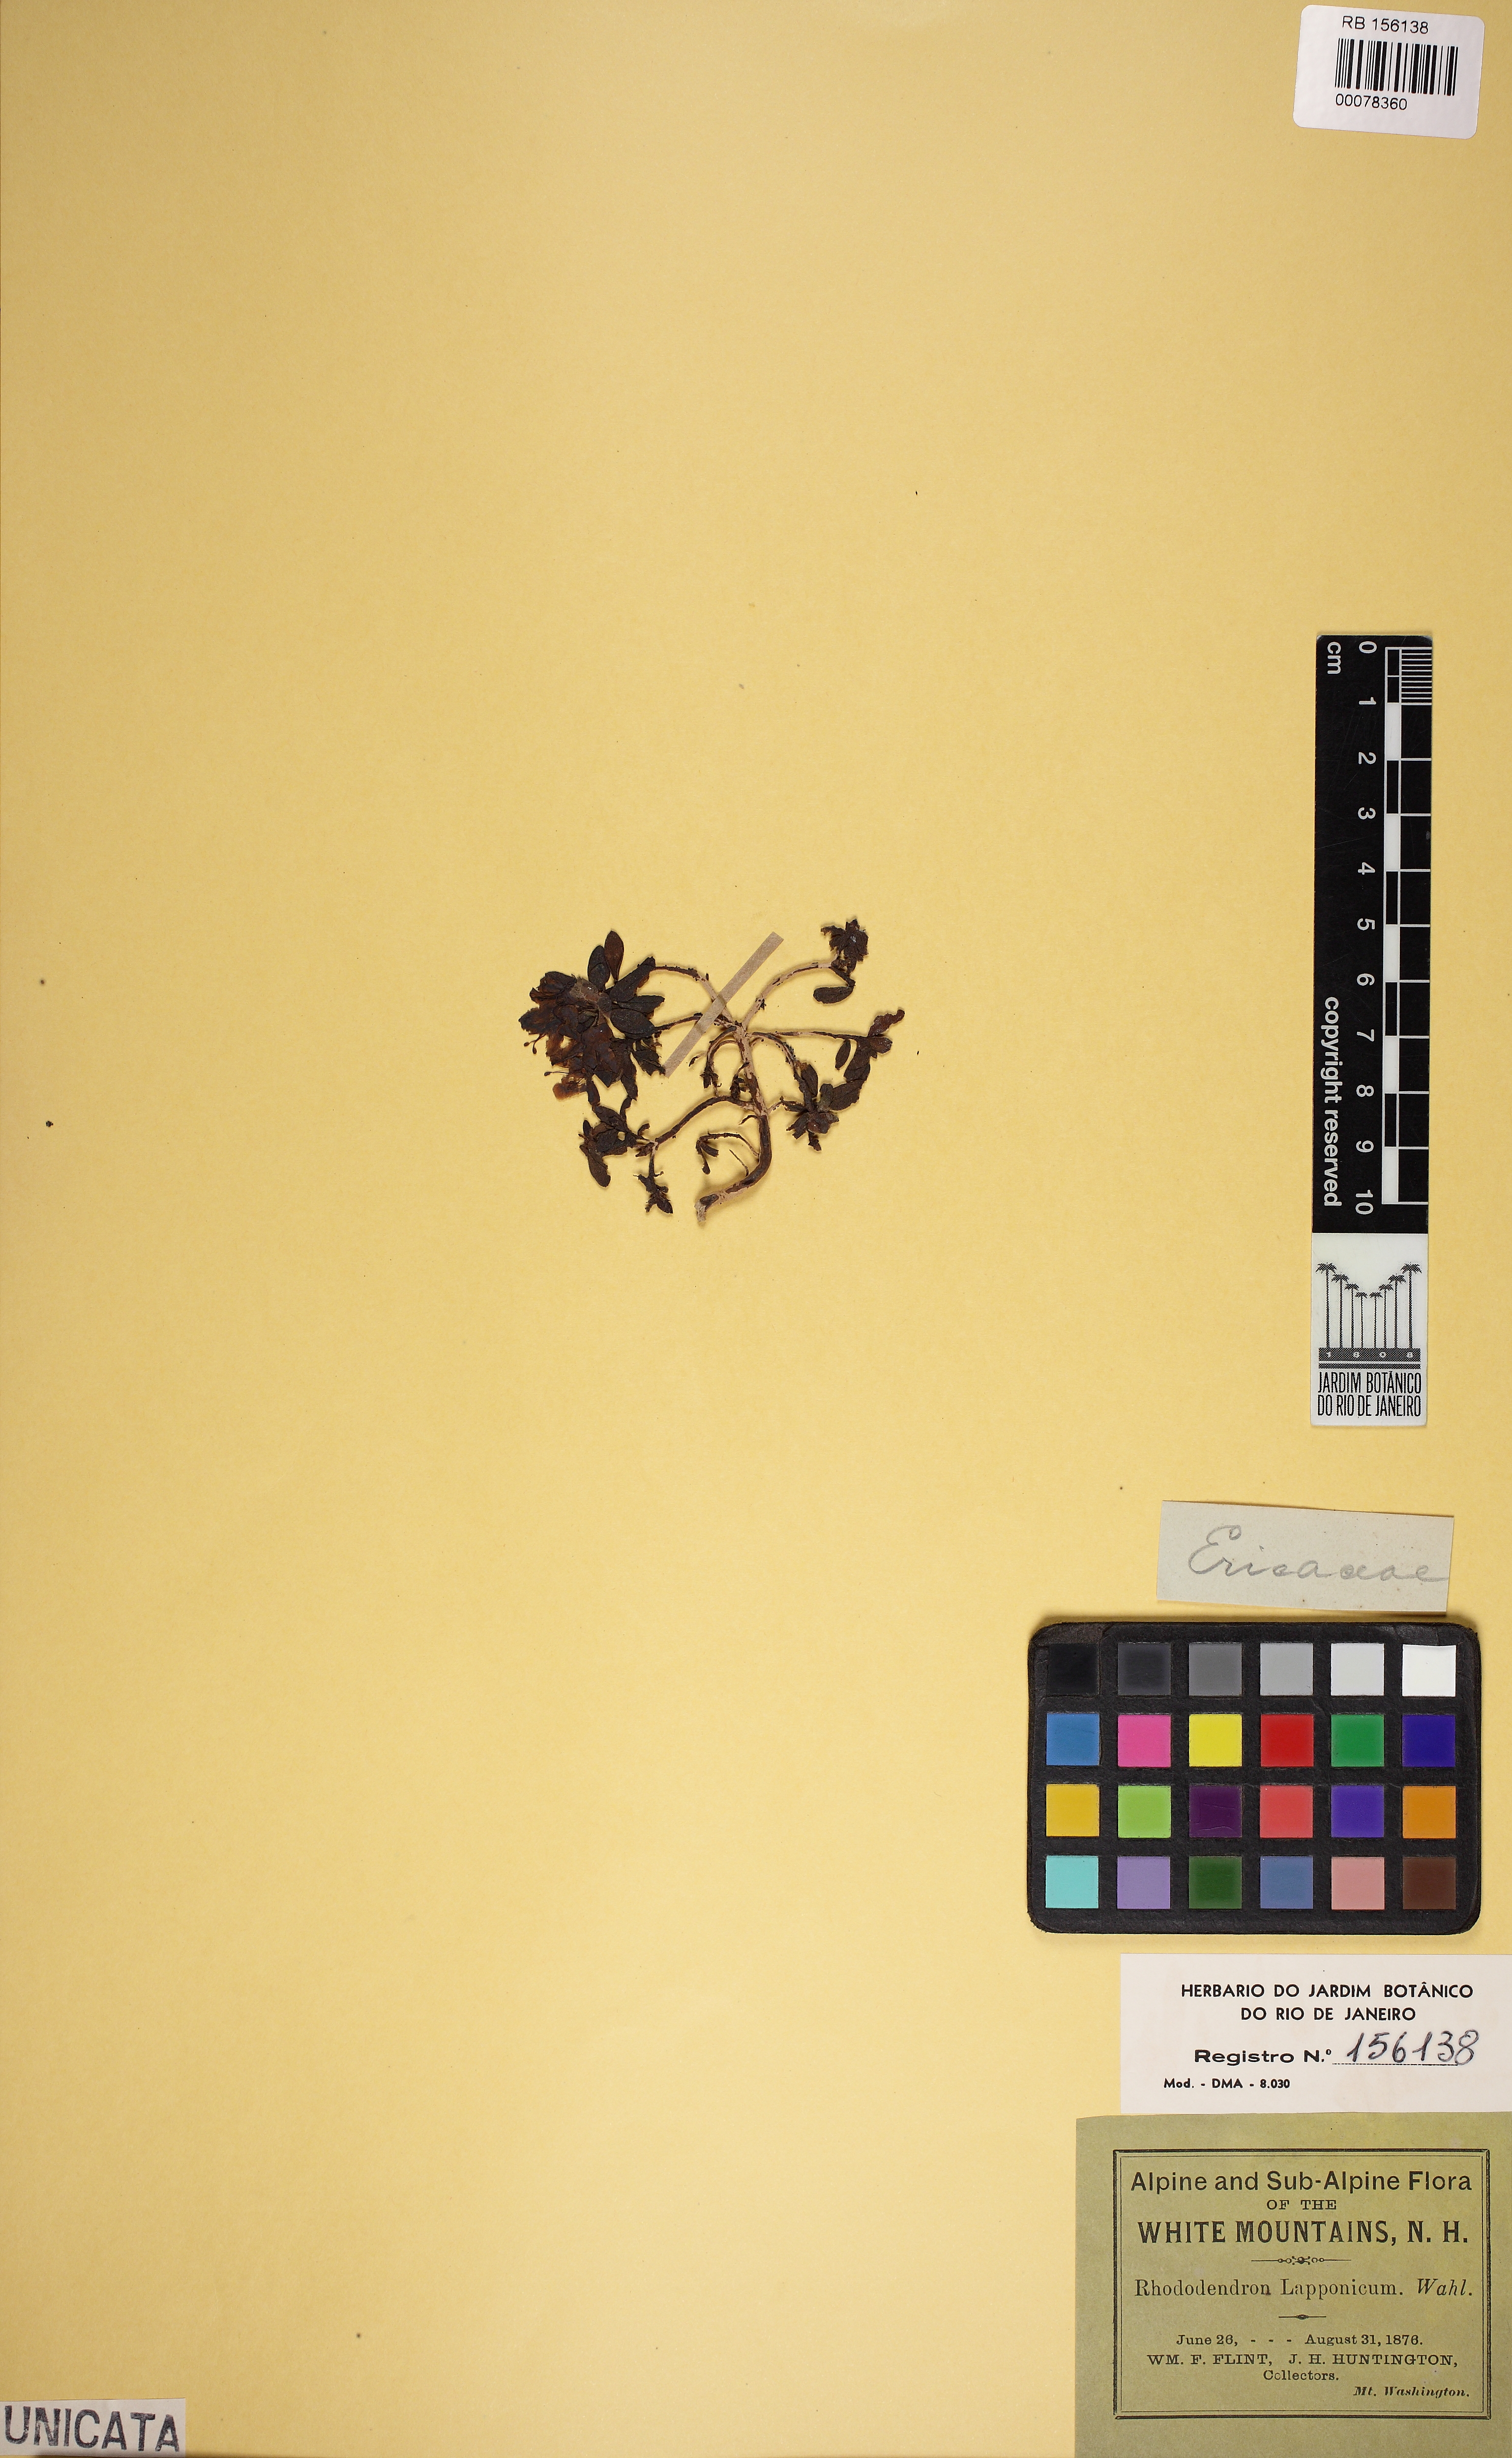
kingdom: Plantae
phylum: Tracheophyta
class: Magnoliopsida
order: Ericales
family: Ericaceae
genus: Rhododendron
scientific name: Rhododendron lapponicum
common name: Lapland rhododendron
